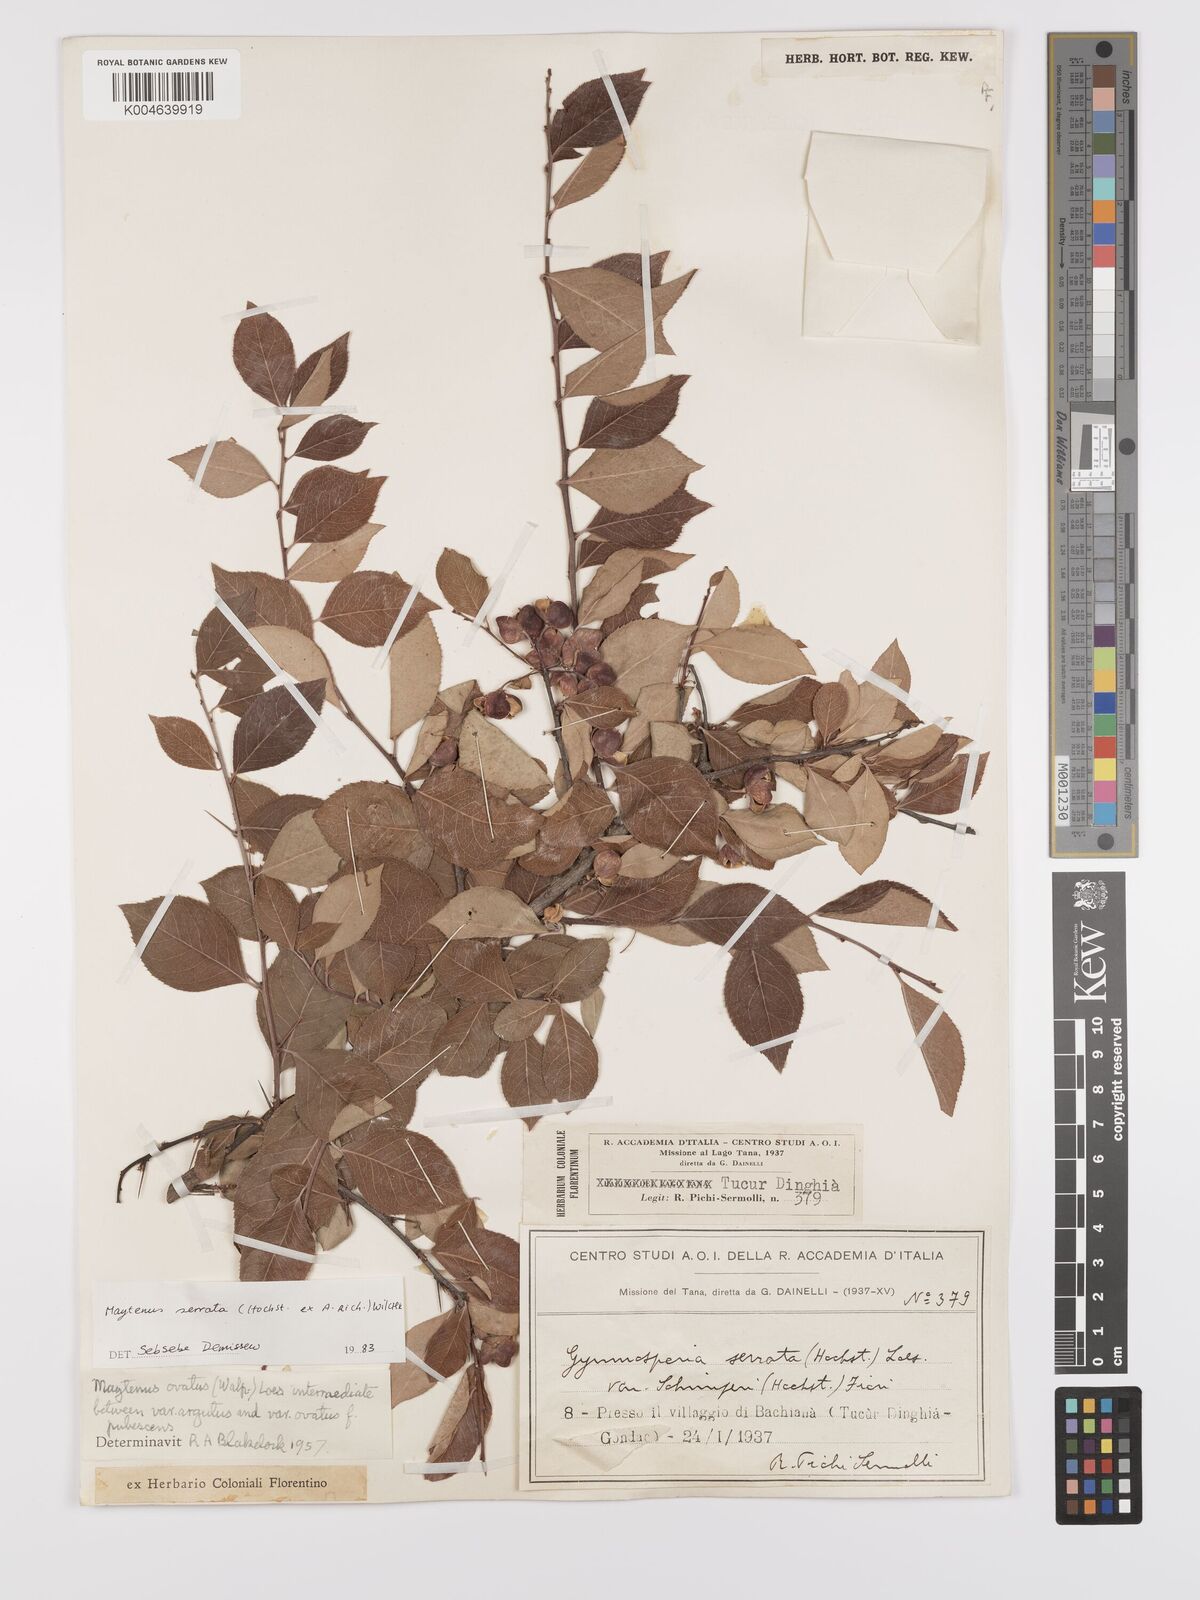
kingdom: Plantae
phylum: Tracheophyta
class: Magnoliopsida
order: Celastrales
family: Celastraceae
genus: Gymnosporia
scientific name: Gymnosporia serrata
